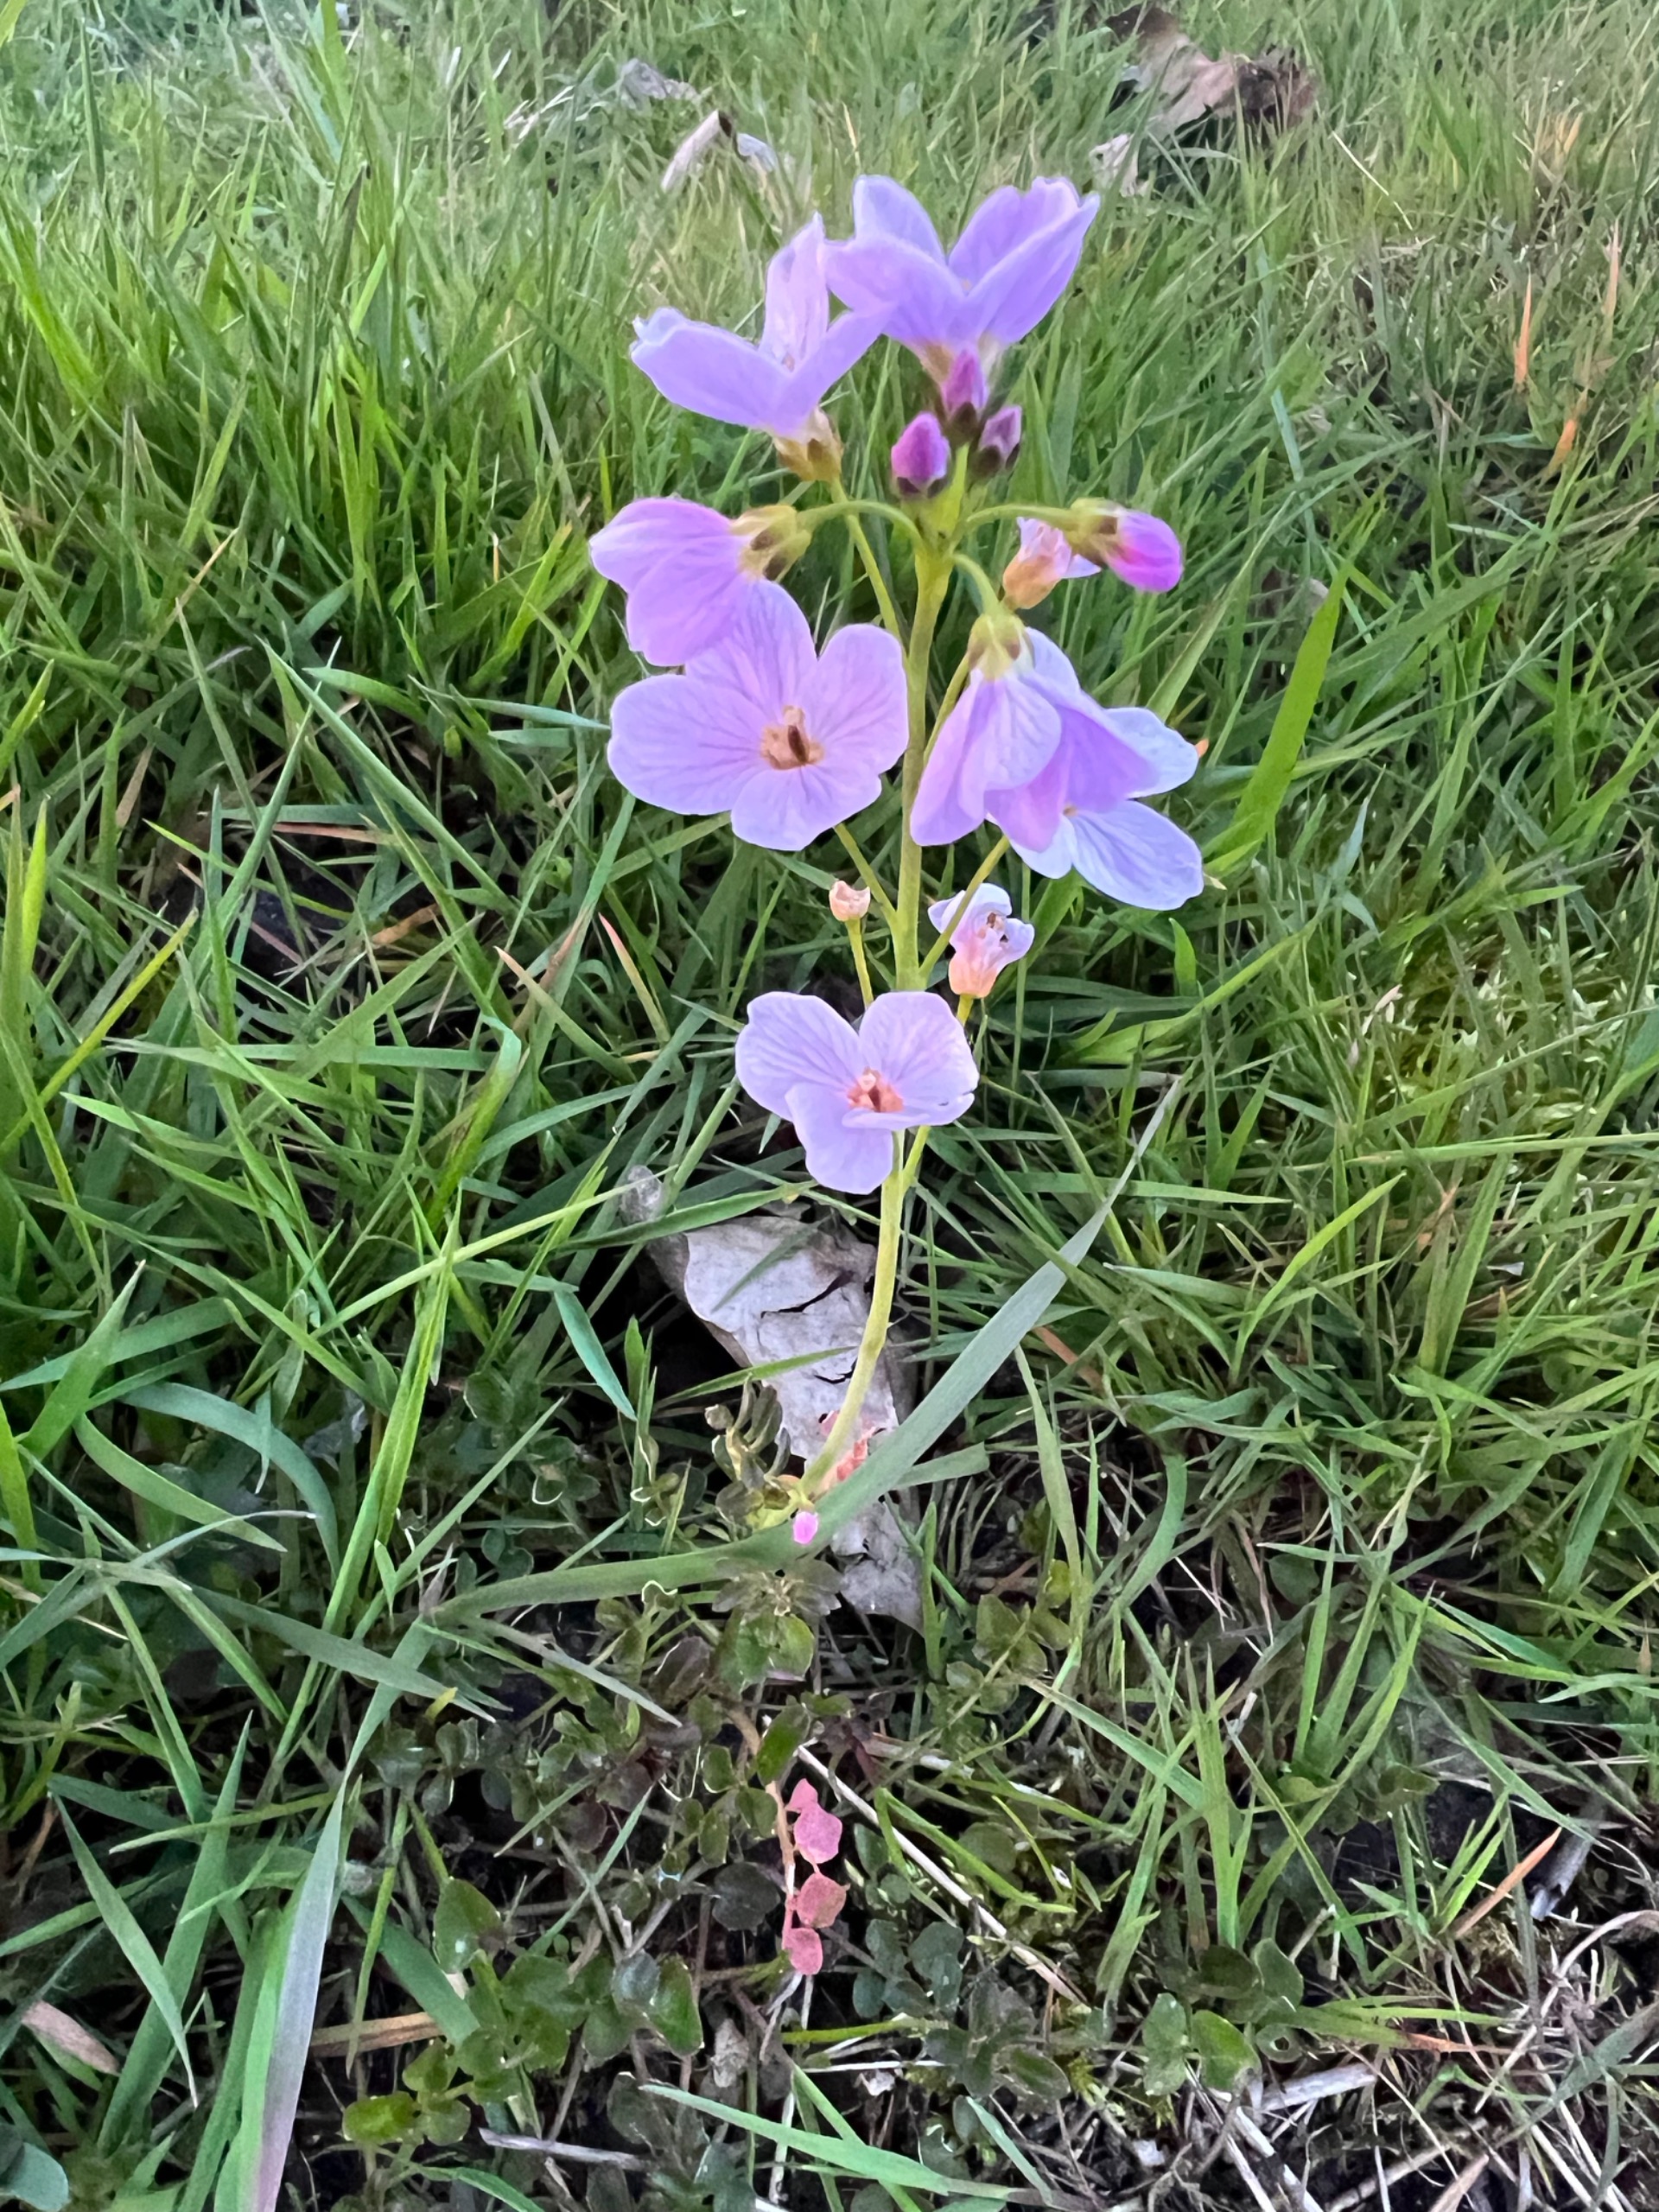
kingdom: Plantae
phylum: Tracheophyta
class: Magnoliopsida
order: Brassicales
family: Brassicaceae
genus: Cardamine
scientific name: Cardamine pratensis
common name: Engkarse
